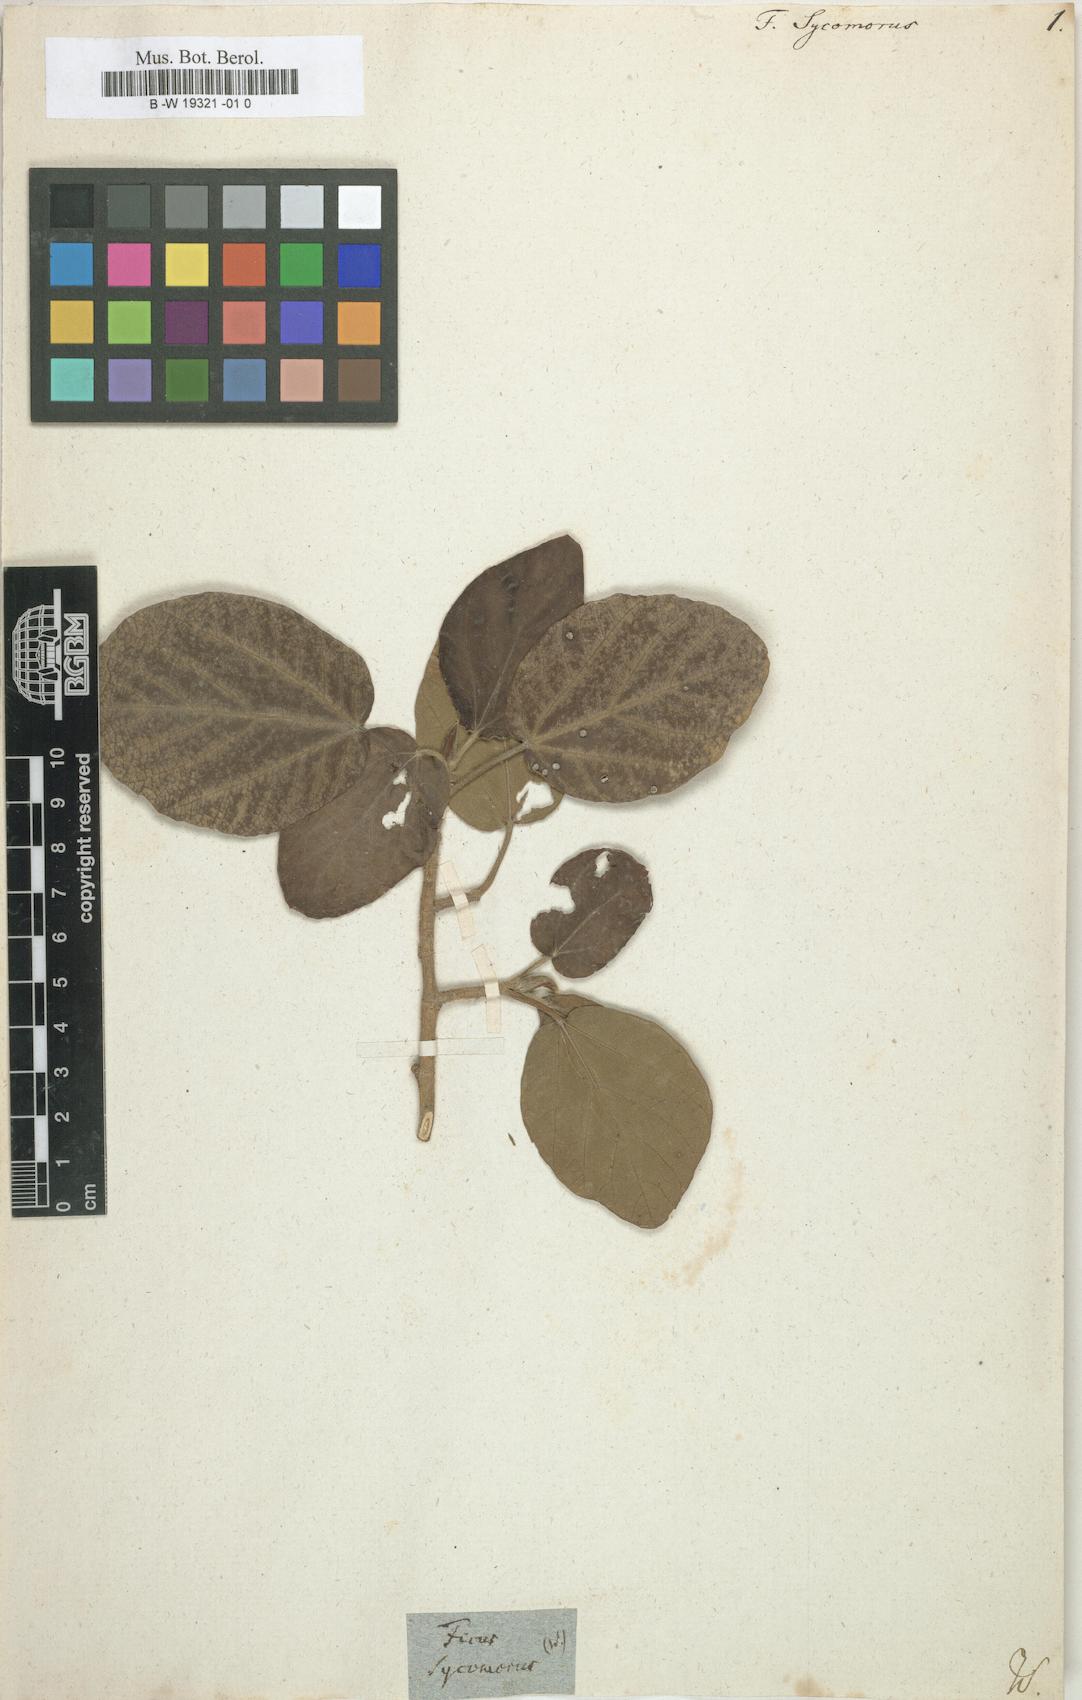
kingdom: Plantae
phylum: Tracheophyta
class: Magnoliopsida
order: Rosales
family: Moraceae
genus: Ficus
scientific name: Ficus sycomorus
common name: Sycomore
